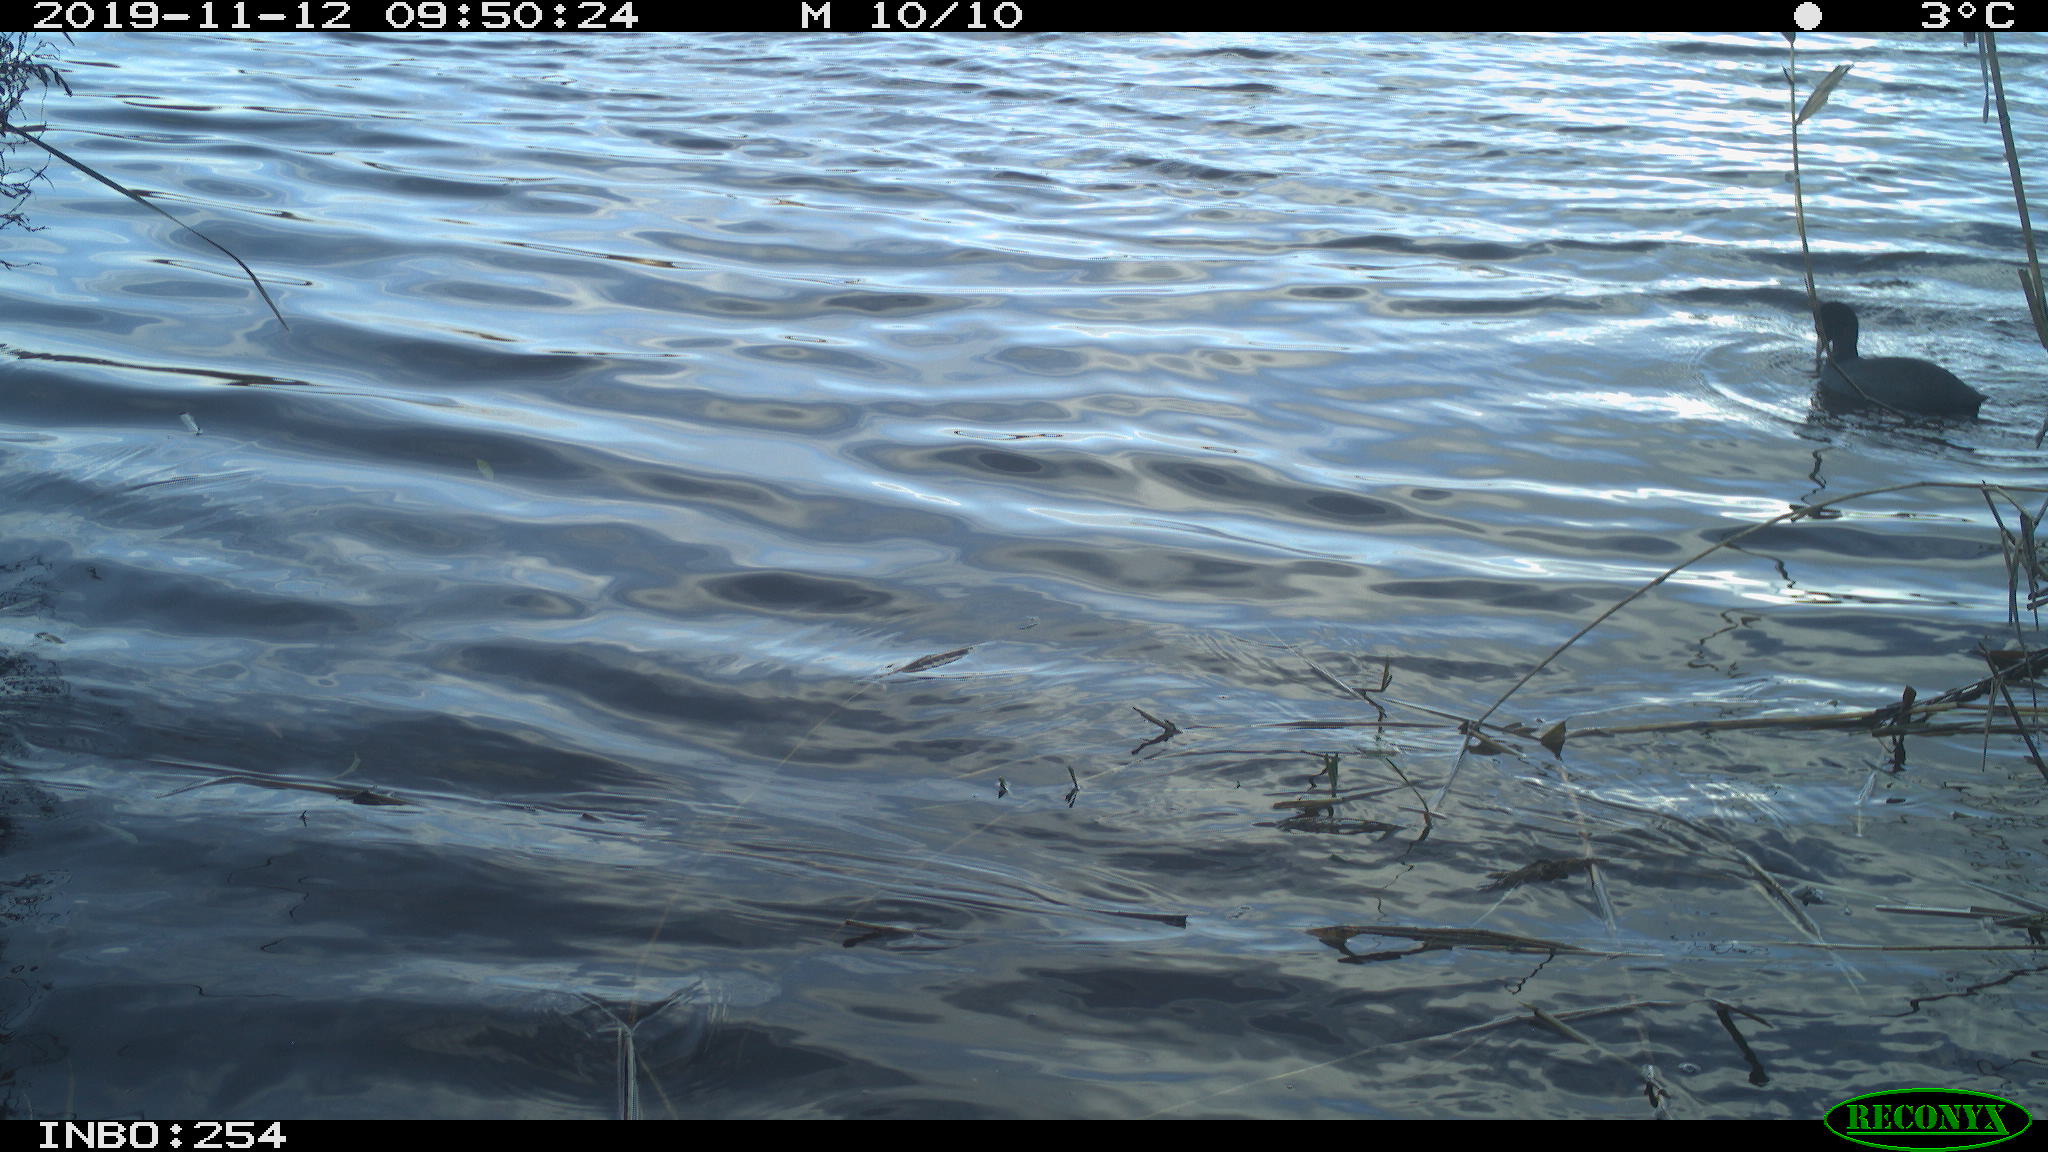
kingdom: Animalia
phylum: Chordata
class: Aves
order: Gruiformes
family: Rallidae
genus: Fulica
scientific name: Fulica atra
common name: Eurasian coot
